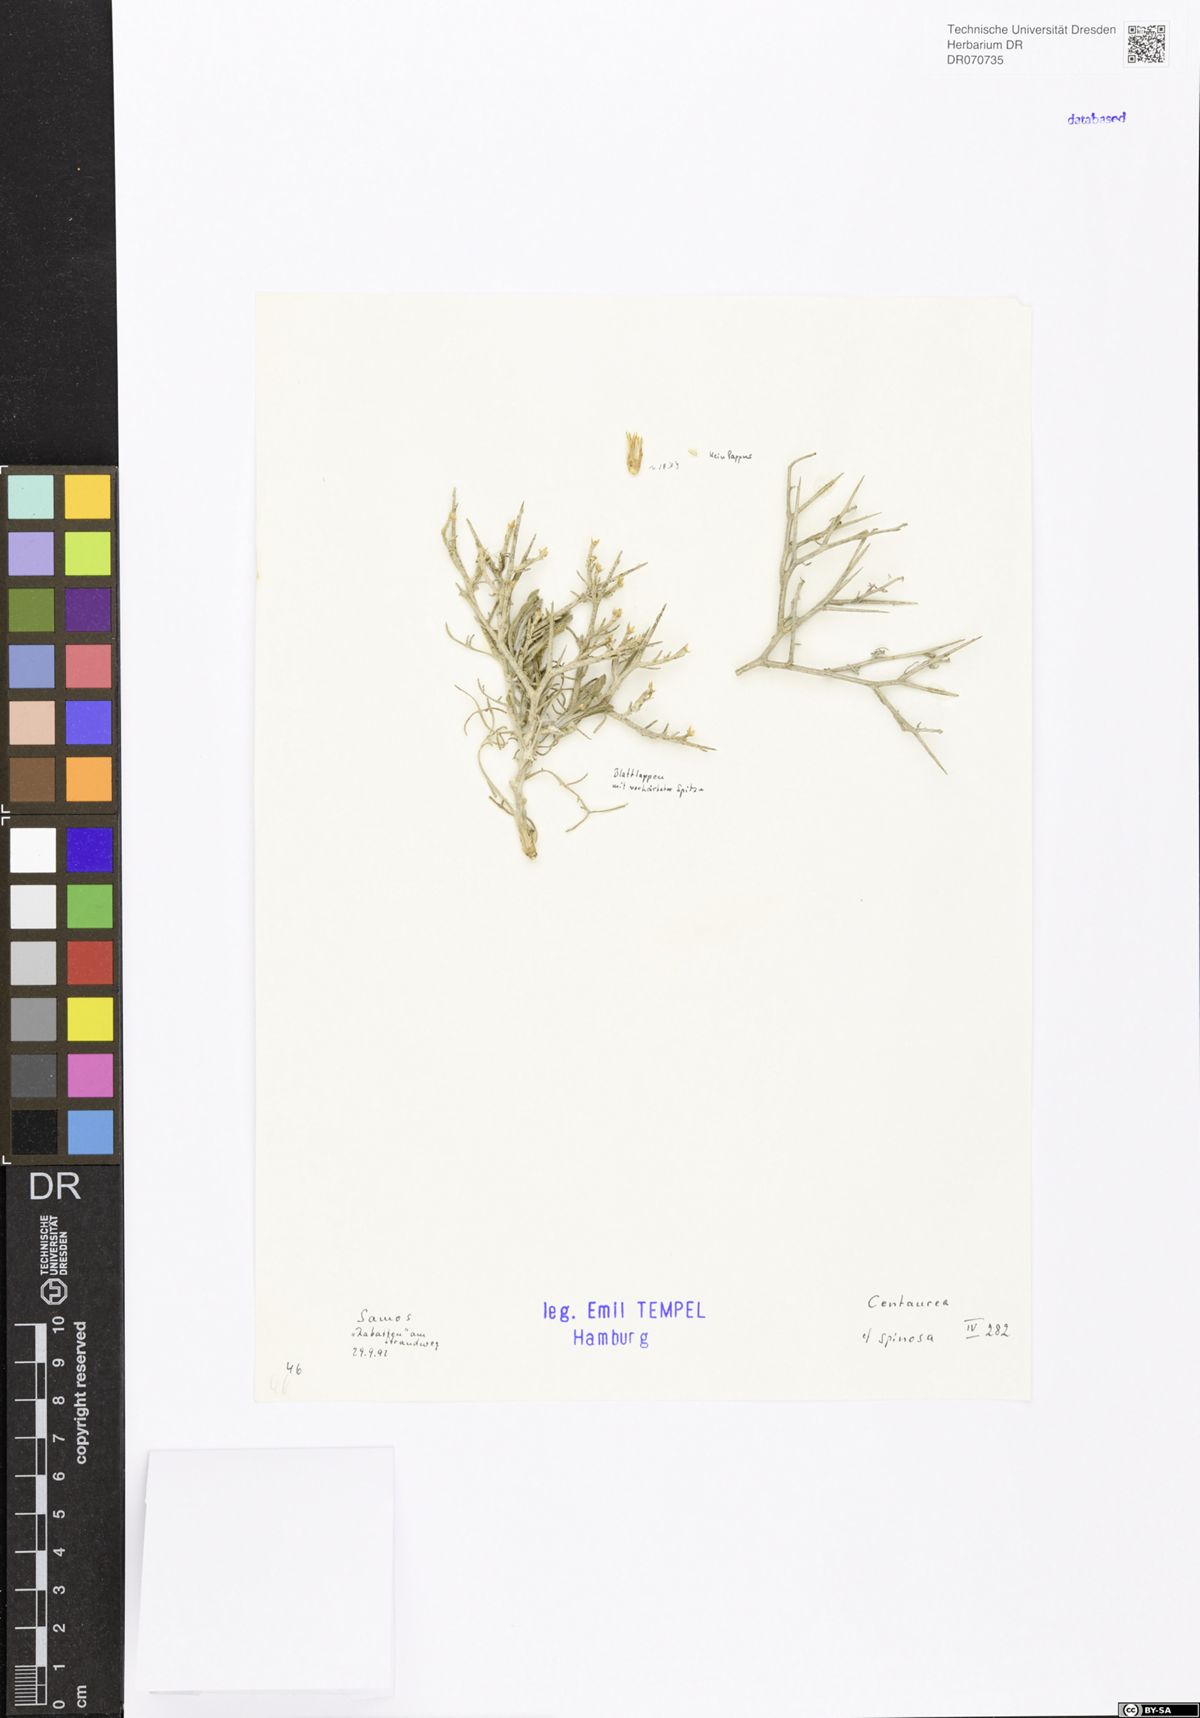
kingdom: Plantae
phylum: Tracheophyta
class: Magnoliopsida
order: Asterales
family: Asteraceae
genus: Centaurea
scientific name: Centaurea spinosa
